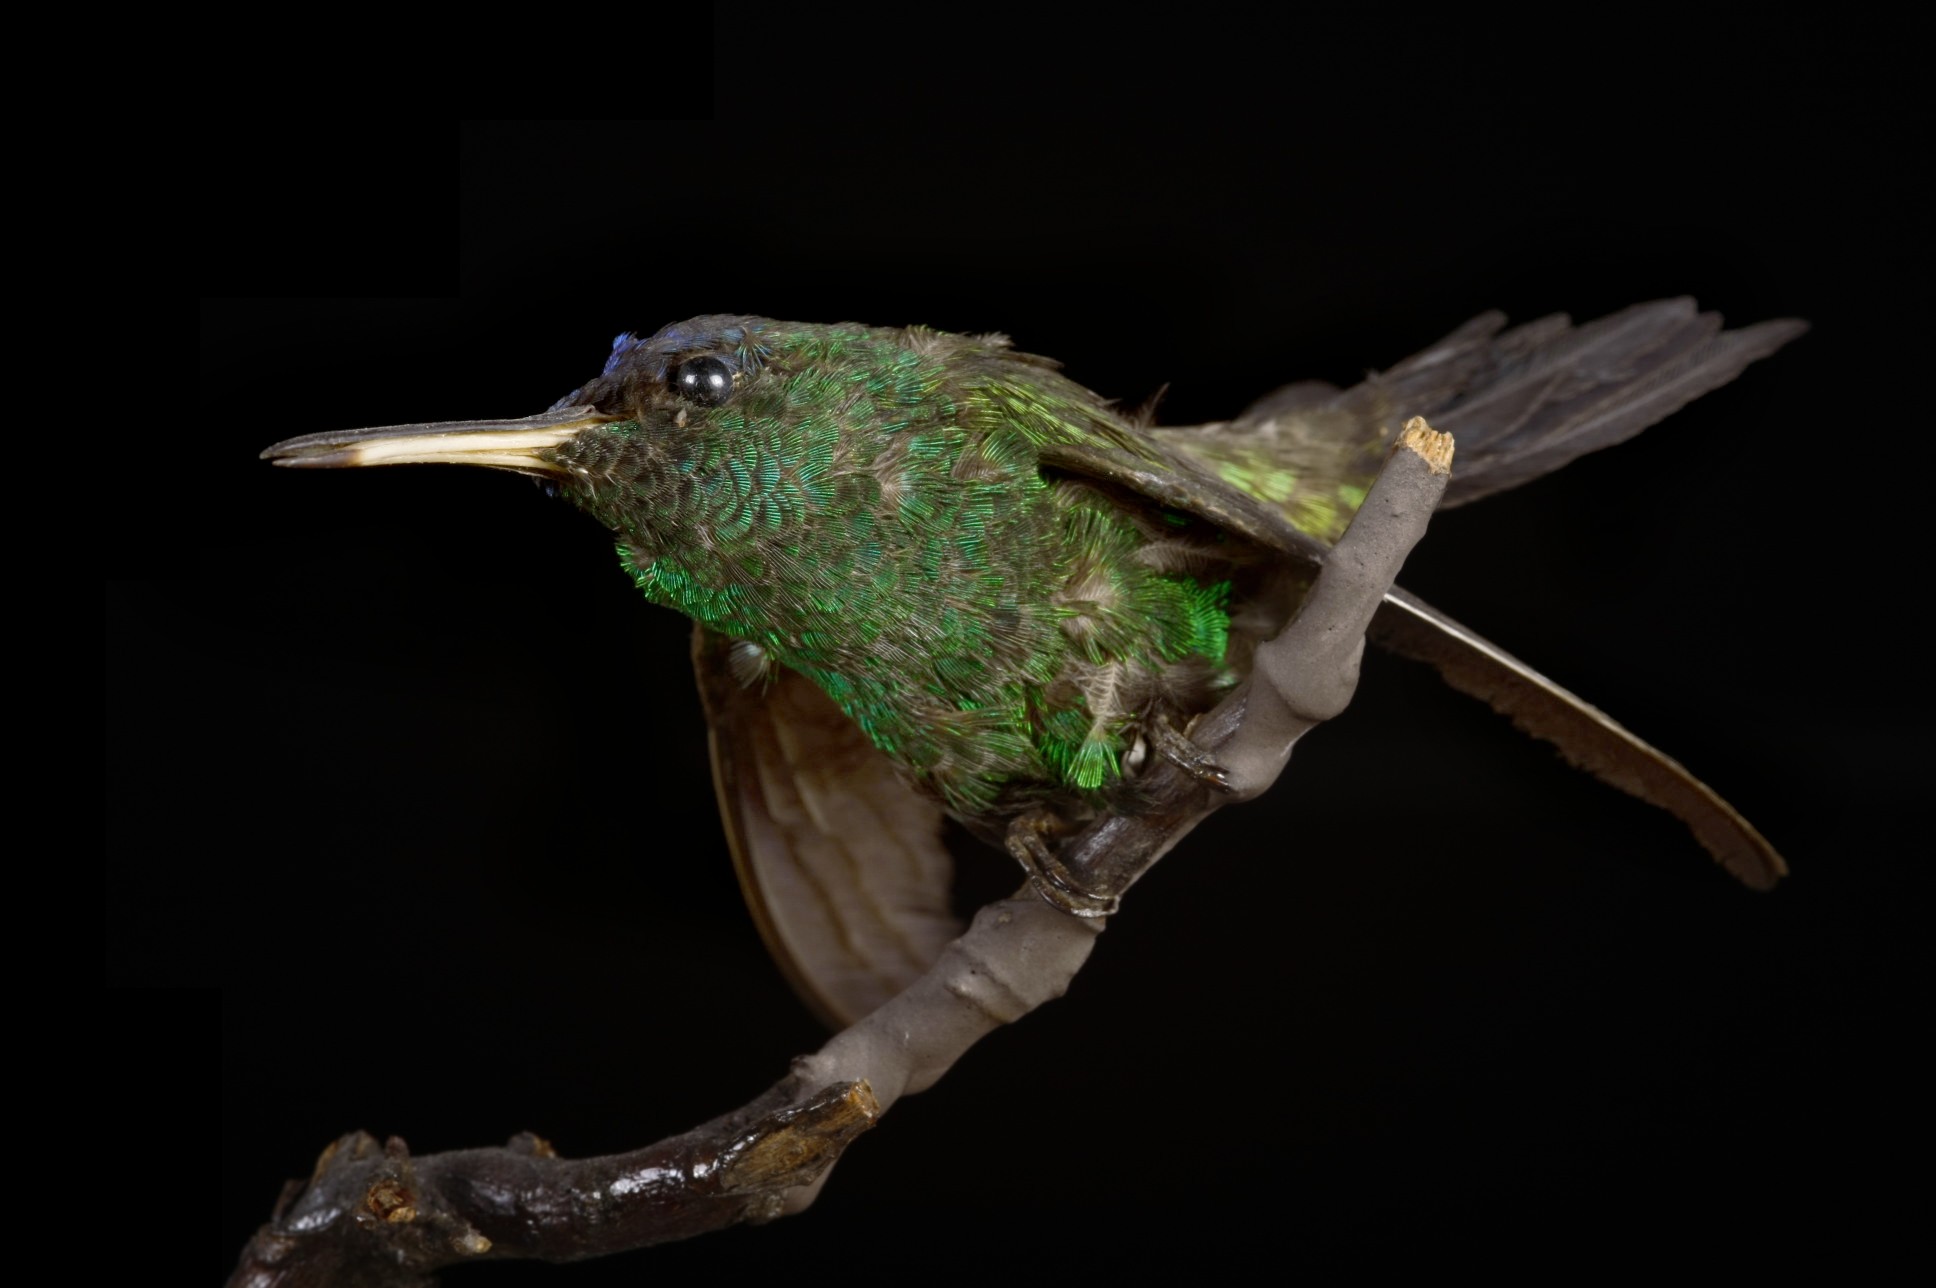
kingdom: Animalia
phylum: Chordata
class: Aves
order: Apodiformes
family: Trochilidae
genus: Saucerottia
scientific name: Saucerottia cyanifrons
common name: Indigo-capped hummingbird
